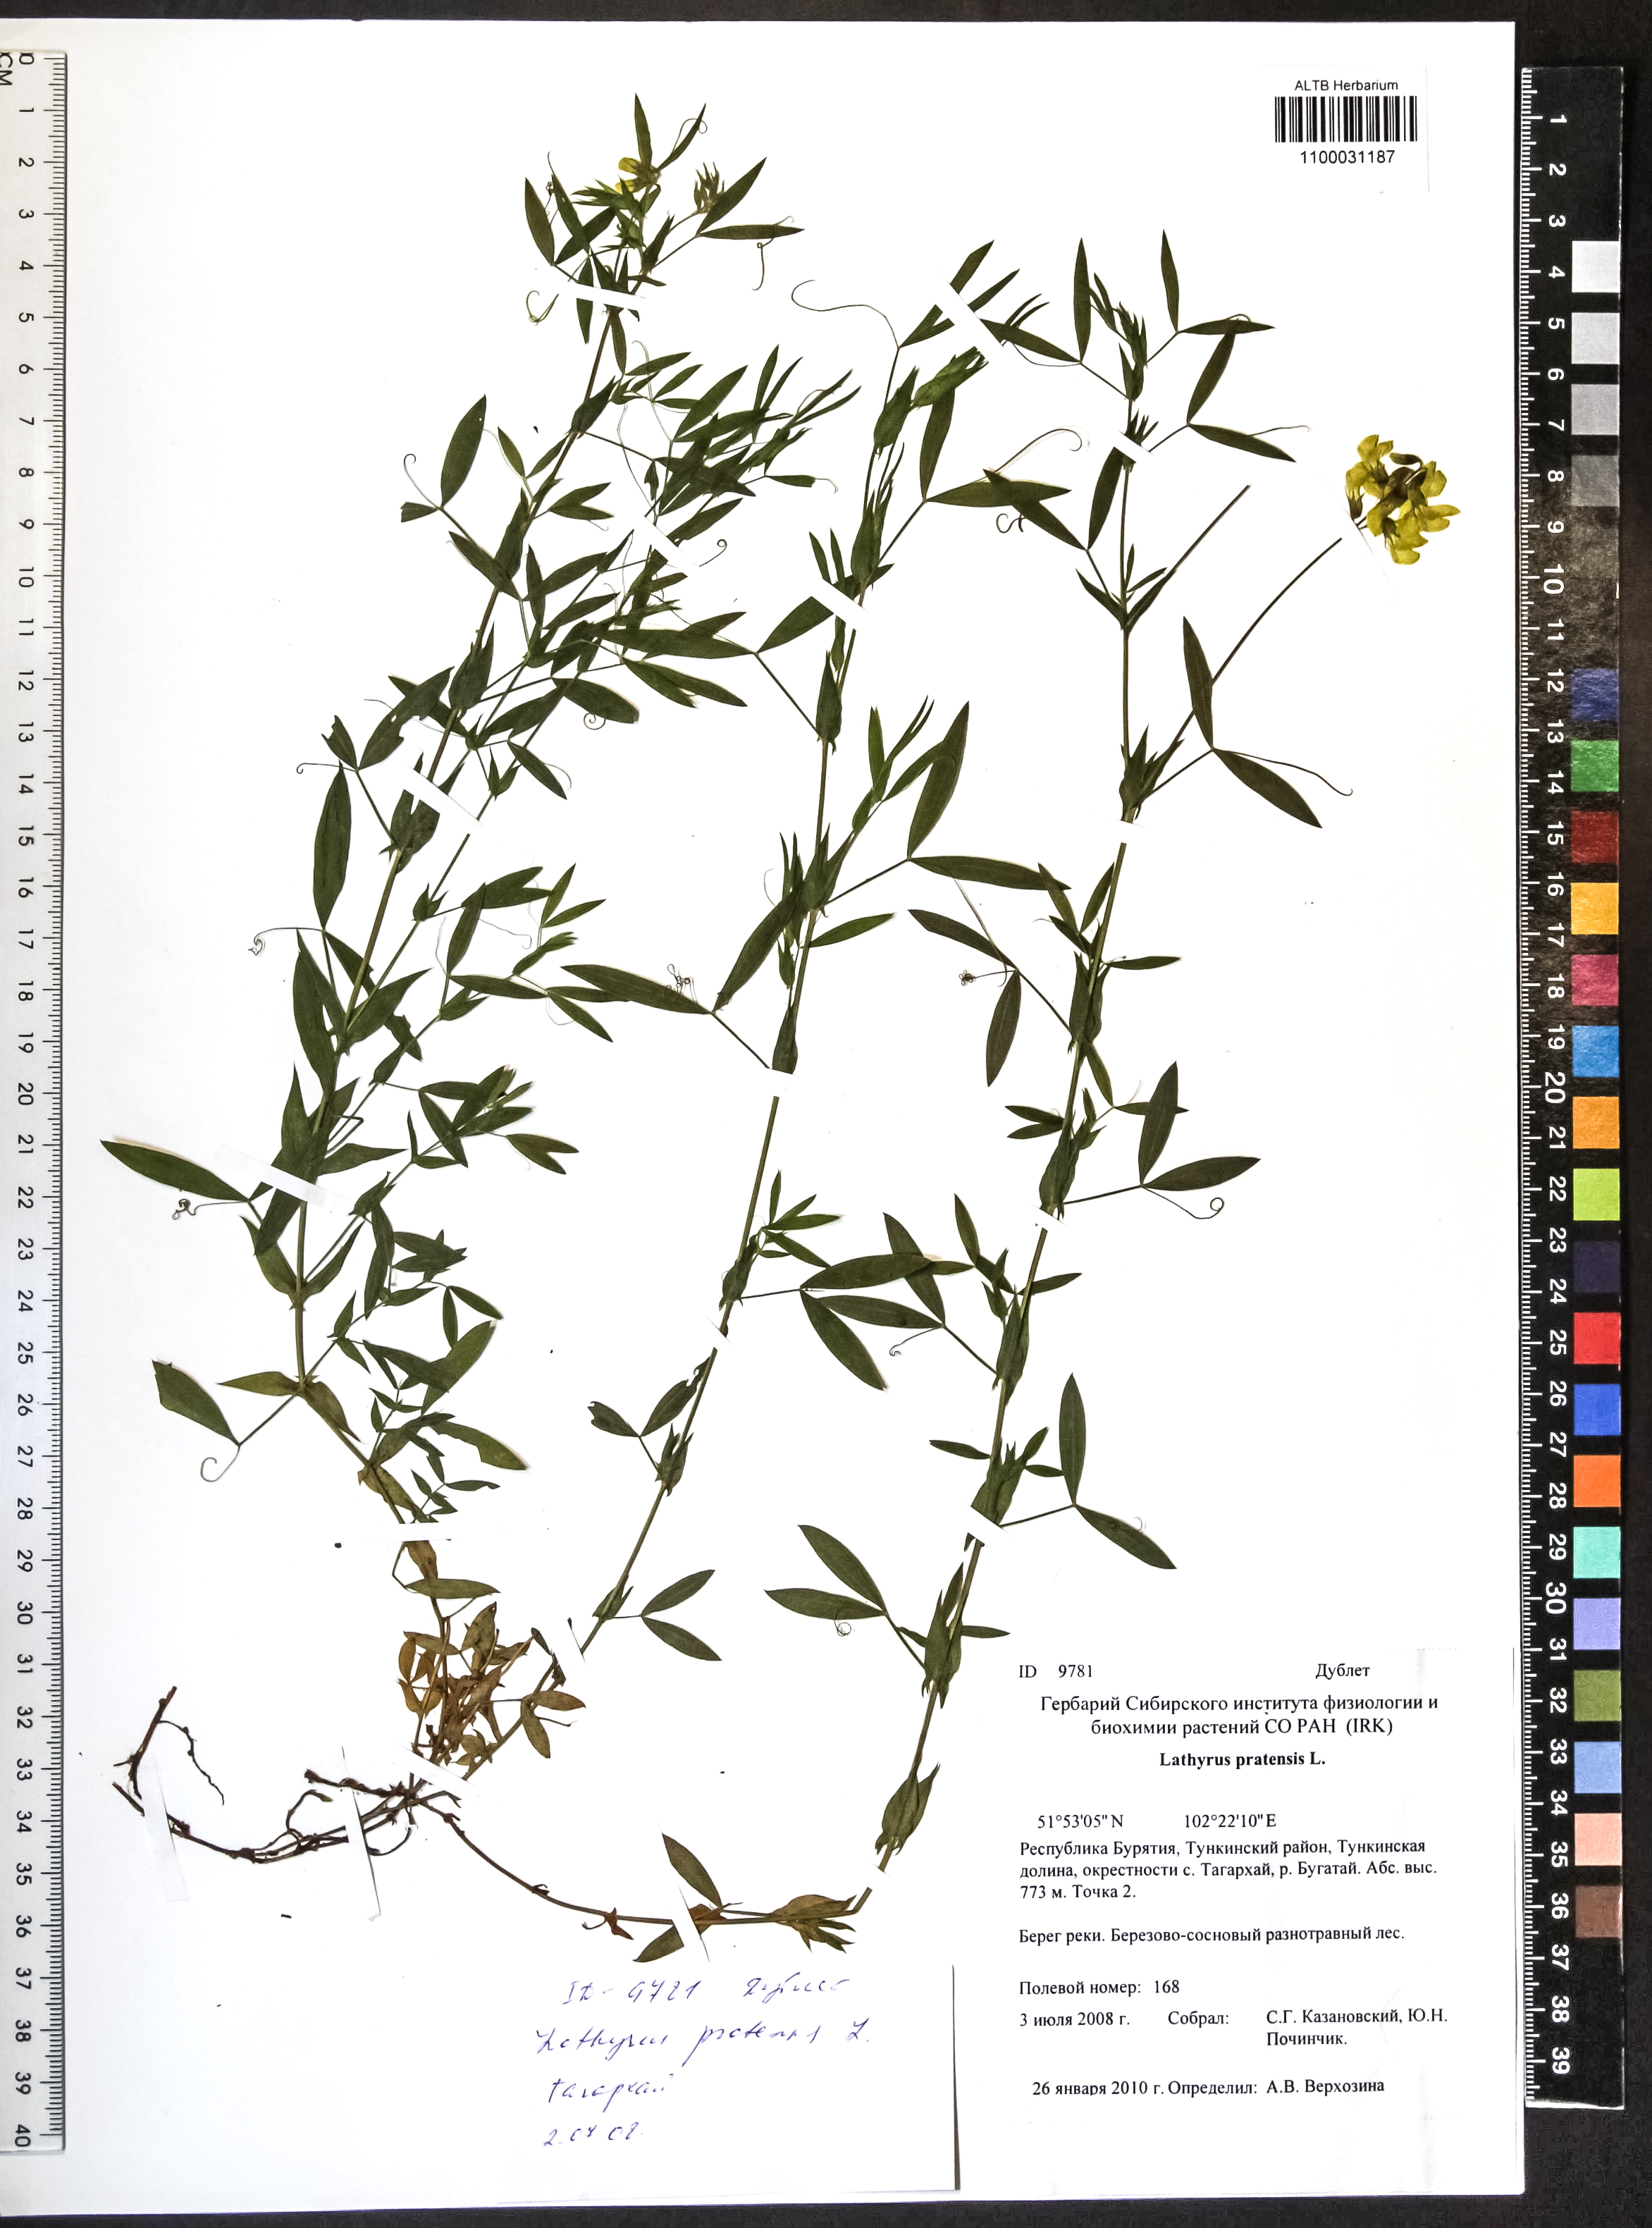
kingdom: Plantae
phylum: Tracheophyta
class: Magnoliopsida
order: Fabales
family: Fabaceae
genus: Lathyrus
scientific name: Lathyrus pratensis
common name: Meadow vetchling
